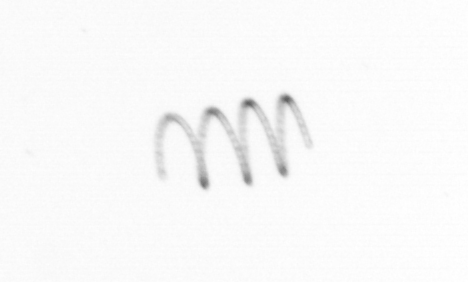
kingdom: Chromista
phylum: Ochrophyta
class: Bacillariophyceae
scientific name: Bacillariophyceae
